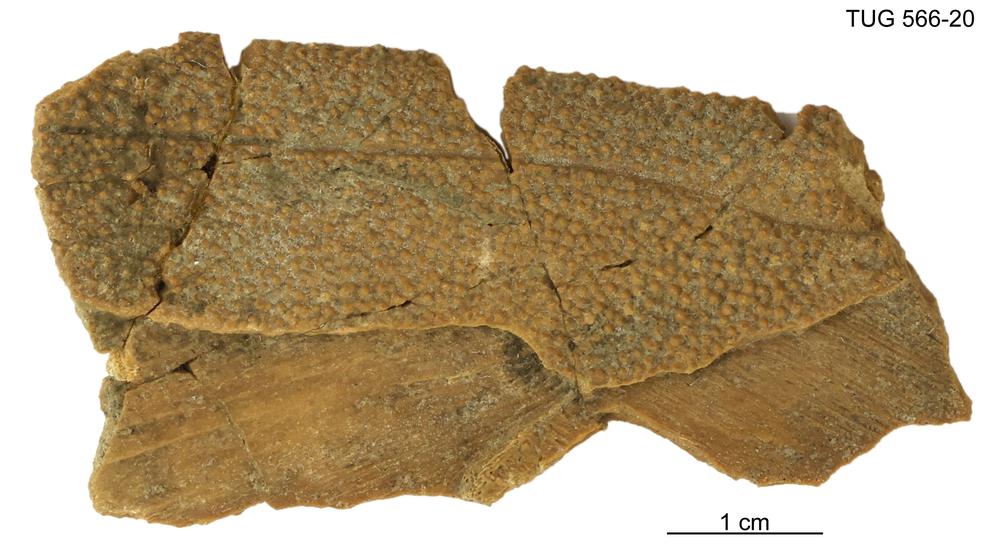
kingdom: Animalia
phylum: Chordata
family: Homostiidae
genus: Homostius
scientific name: Homostius
